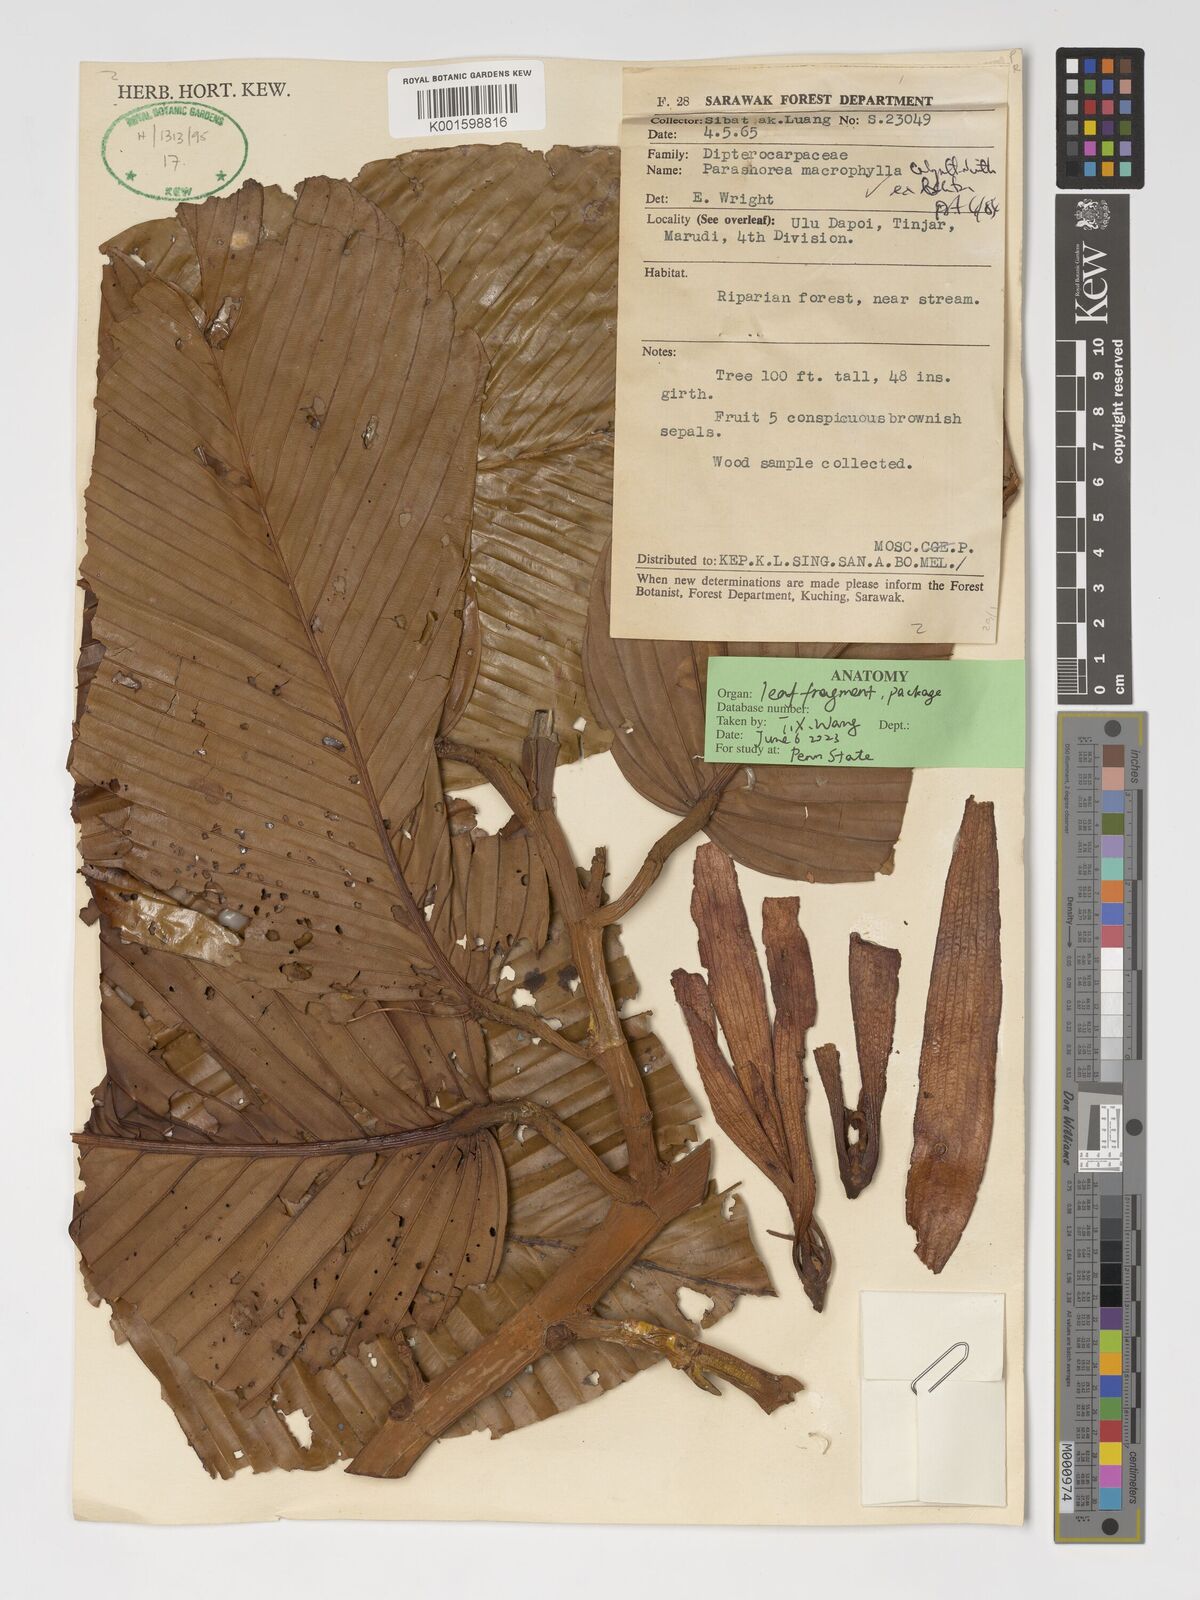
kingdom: Plantae
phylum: Tracheophyta
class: Magnoliopsida
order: Malvales
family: Dipterocarpaceae
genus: Parashorea
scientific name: Parashorea macrophylla
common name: White lauan
